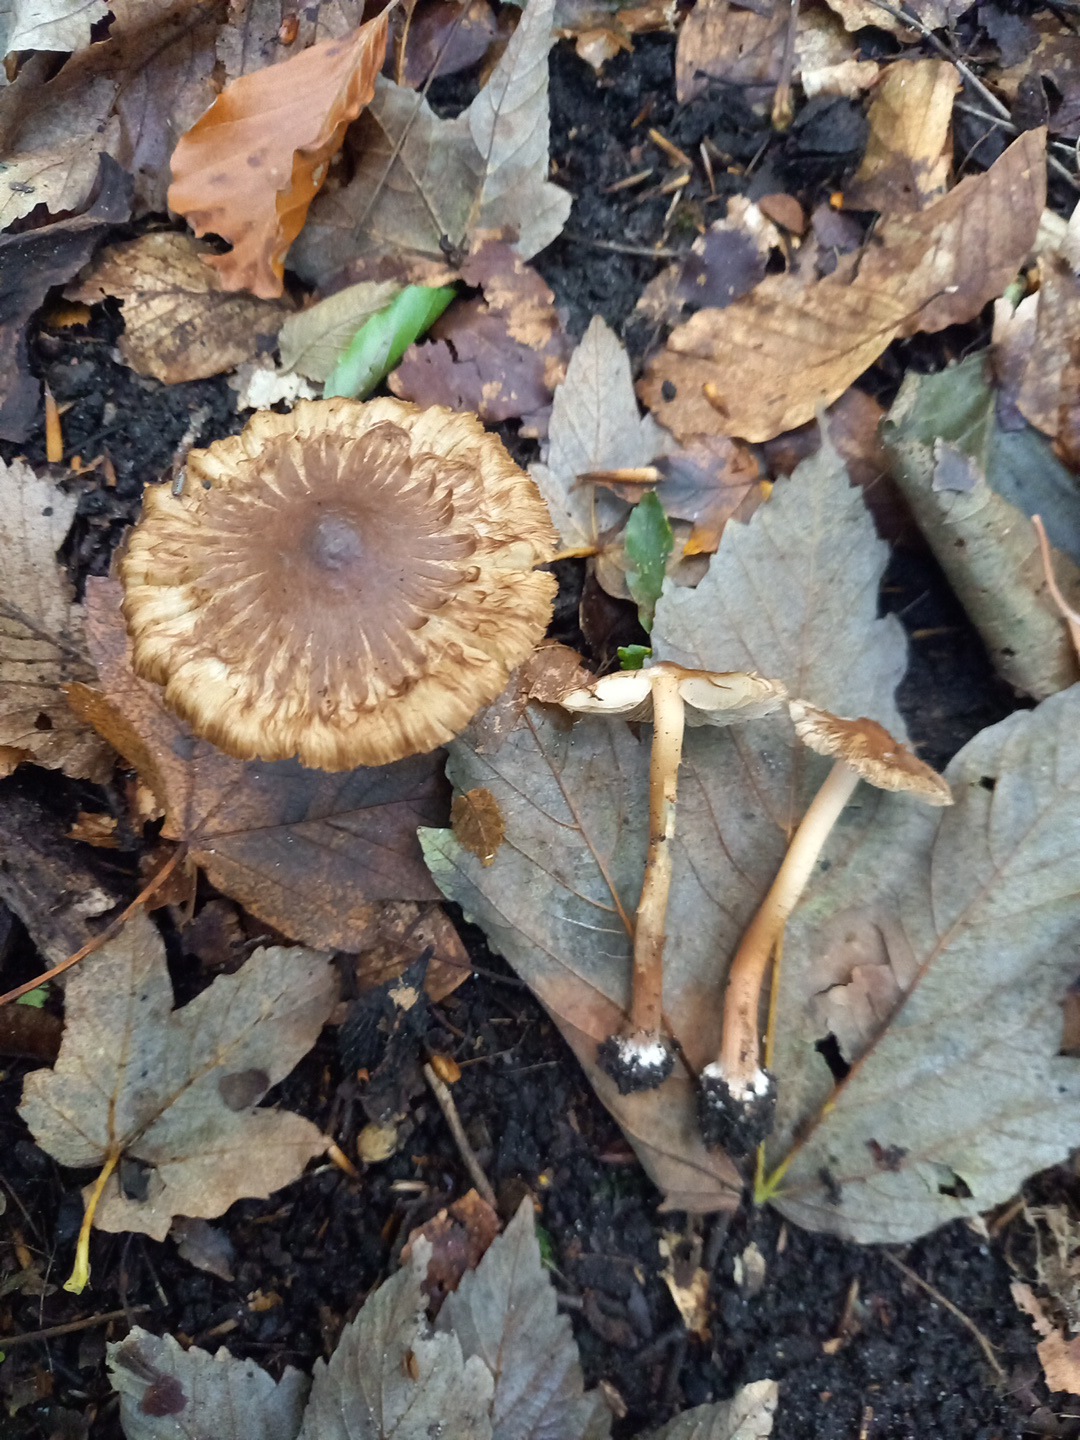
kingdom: Fungi
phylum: Basidiomycota
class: Agaricomycetes
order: Agaricales
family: Inocybaceae
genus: Inocybe
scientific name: Inocybe
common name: trævlhat
